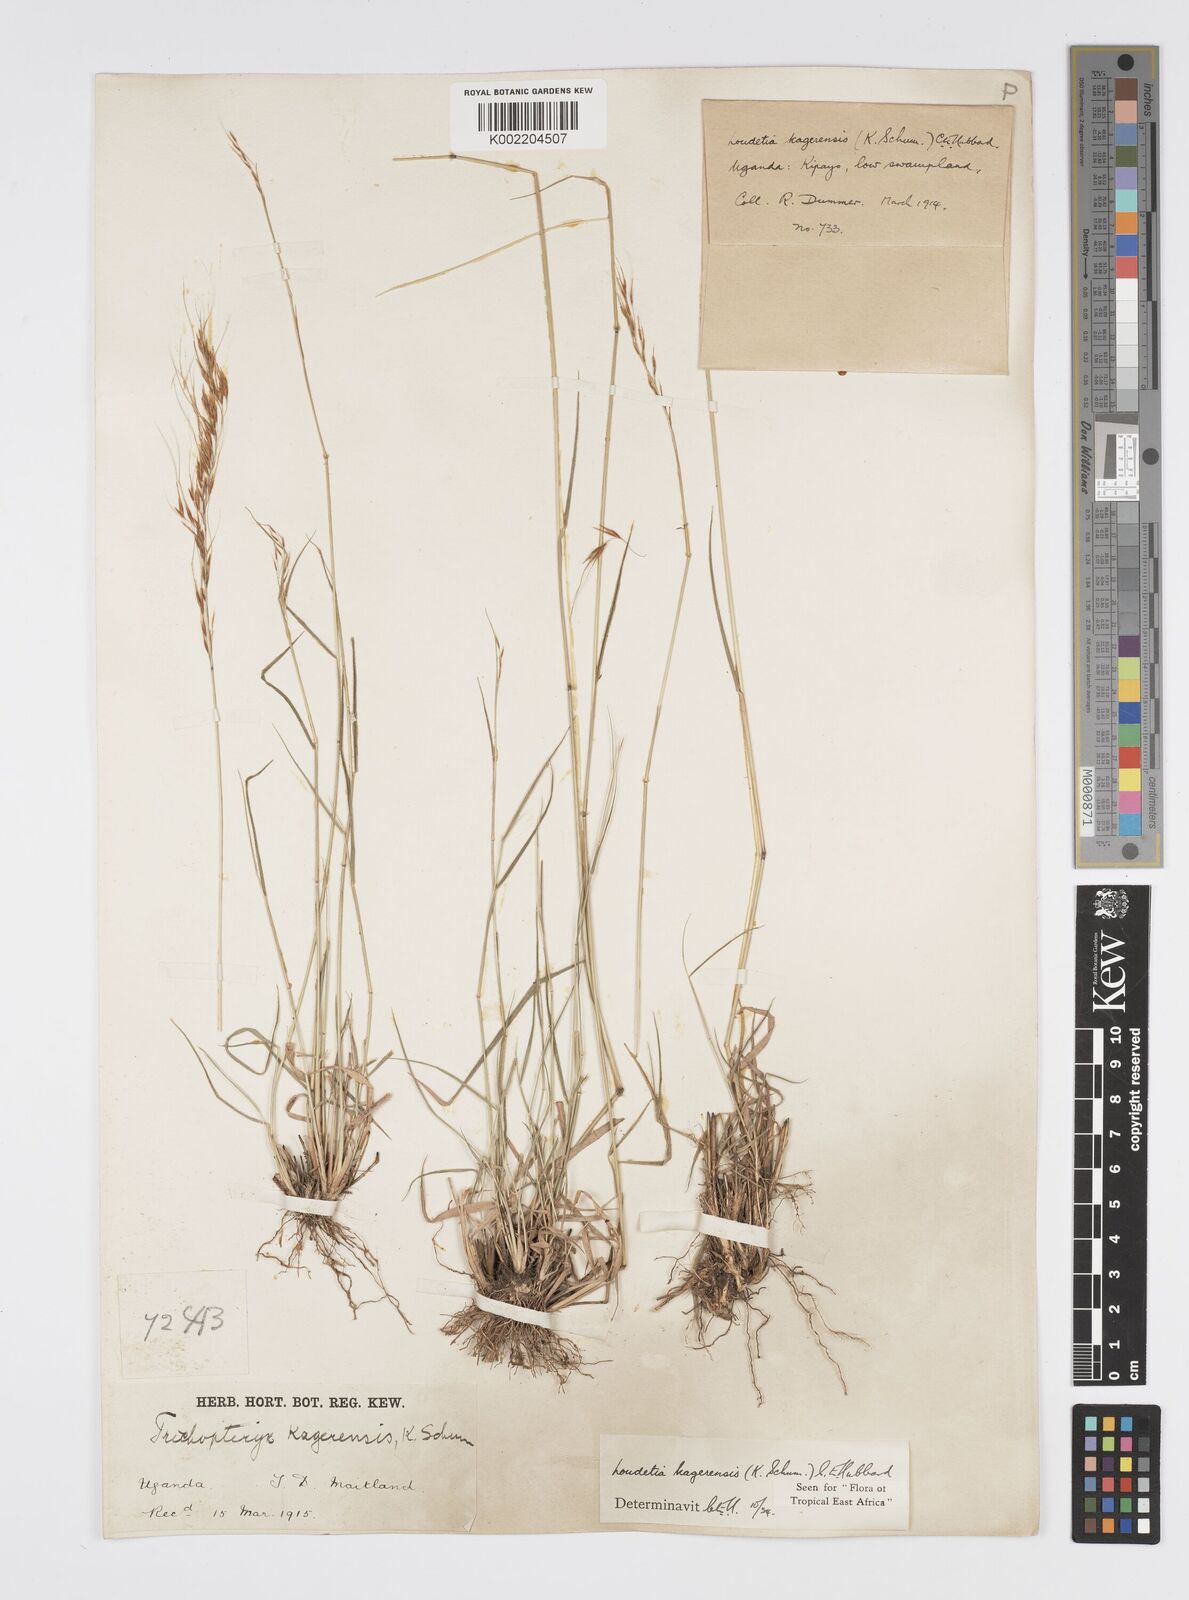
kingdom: Plantae
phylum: Tracheophyta
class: Liliopsida
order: Poales
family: Poaceae
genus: Loudetia
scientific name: Loudetia kagerensis
